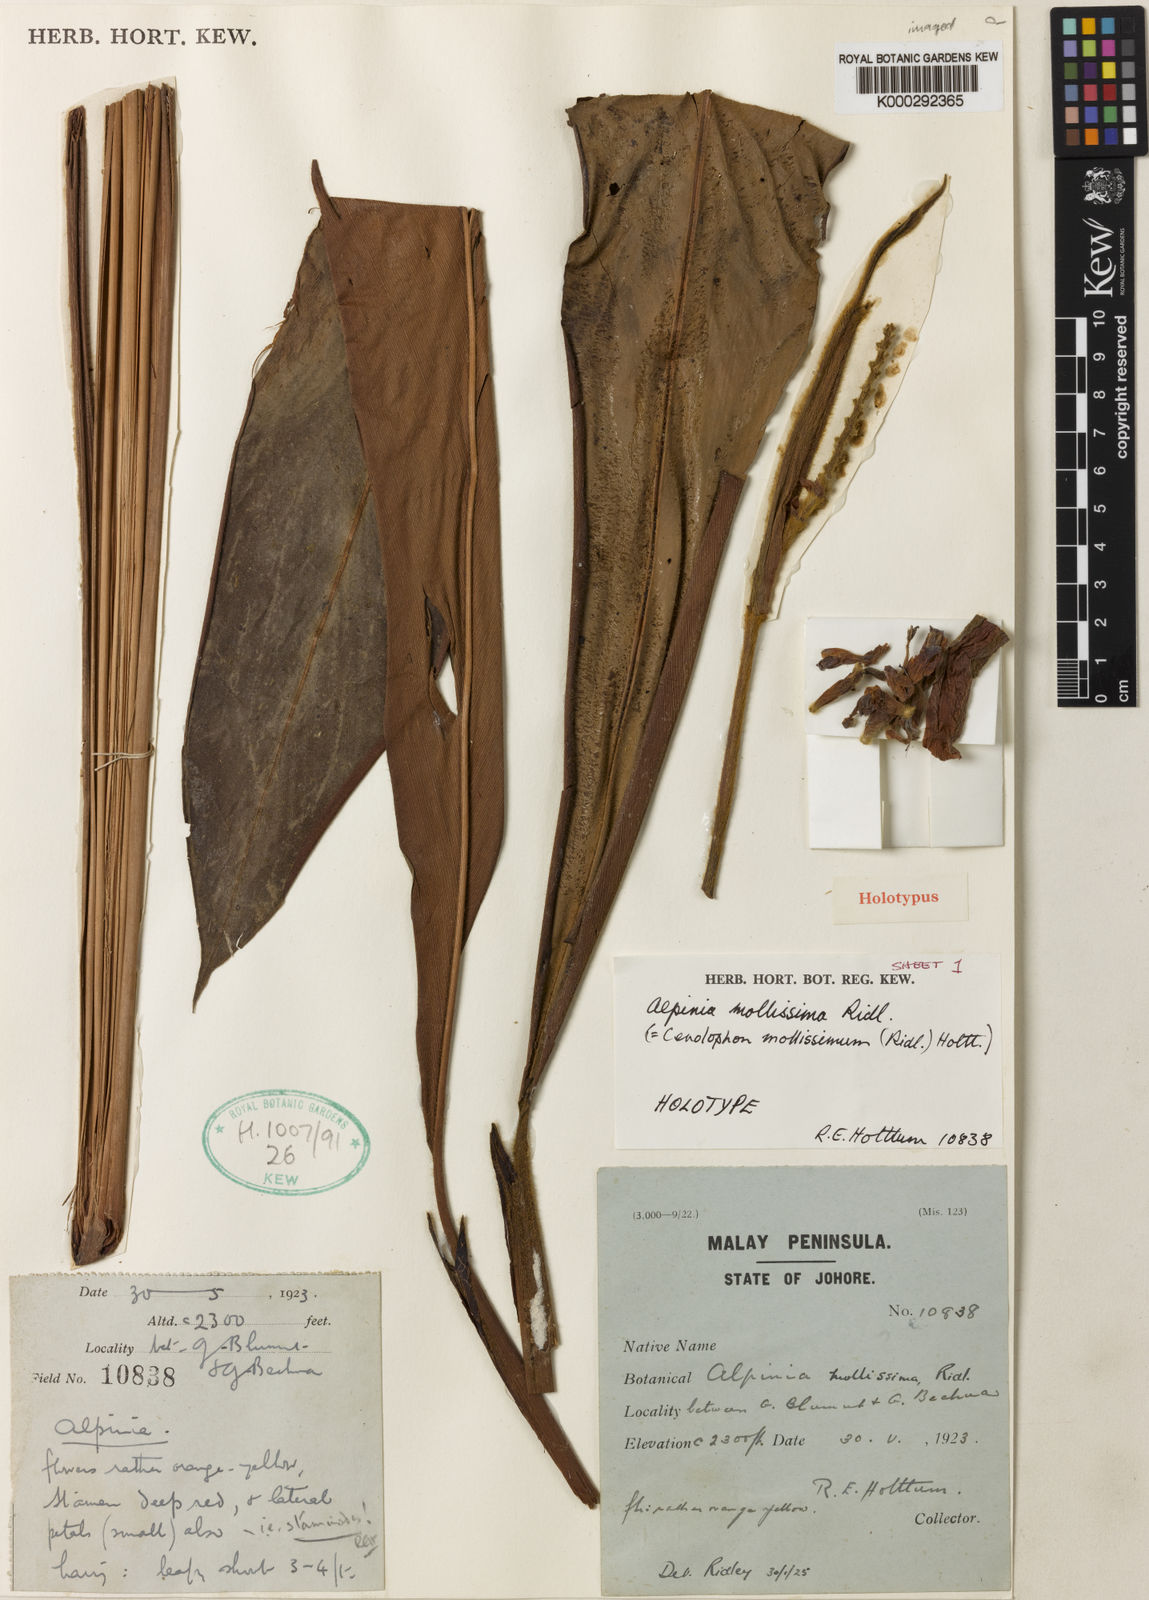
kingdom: Plantae
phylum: Tracheophyta
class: Liliopsida
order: Zingiberales
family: Zingiberaceae
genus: Alpinia
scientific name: Alpinia mollissima
